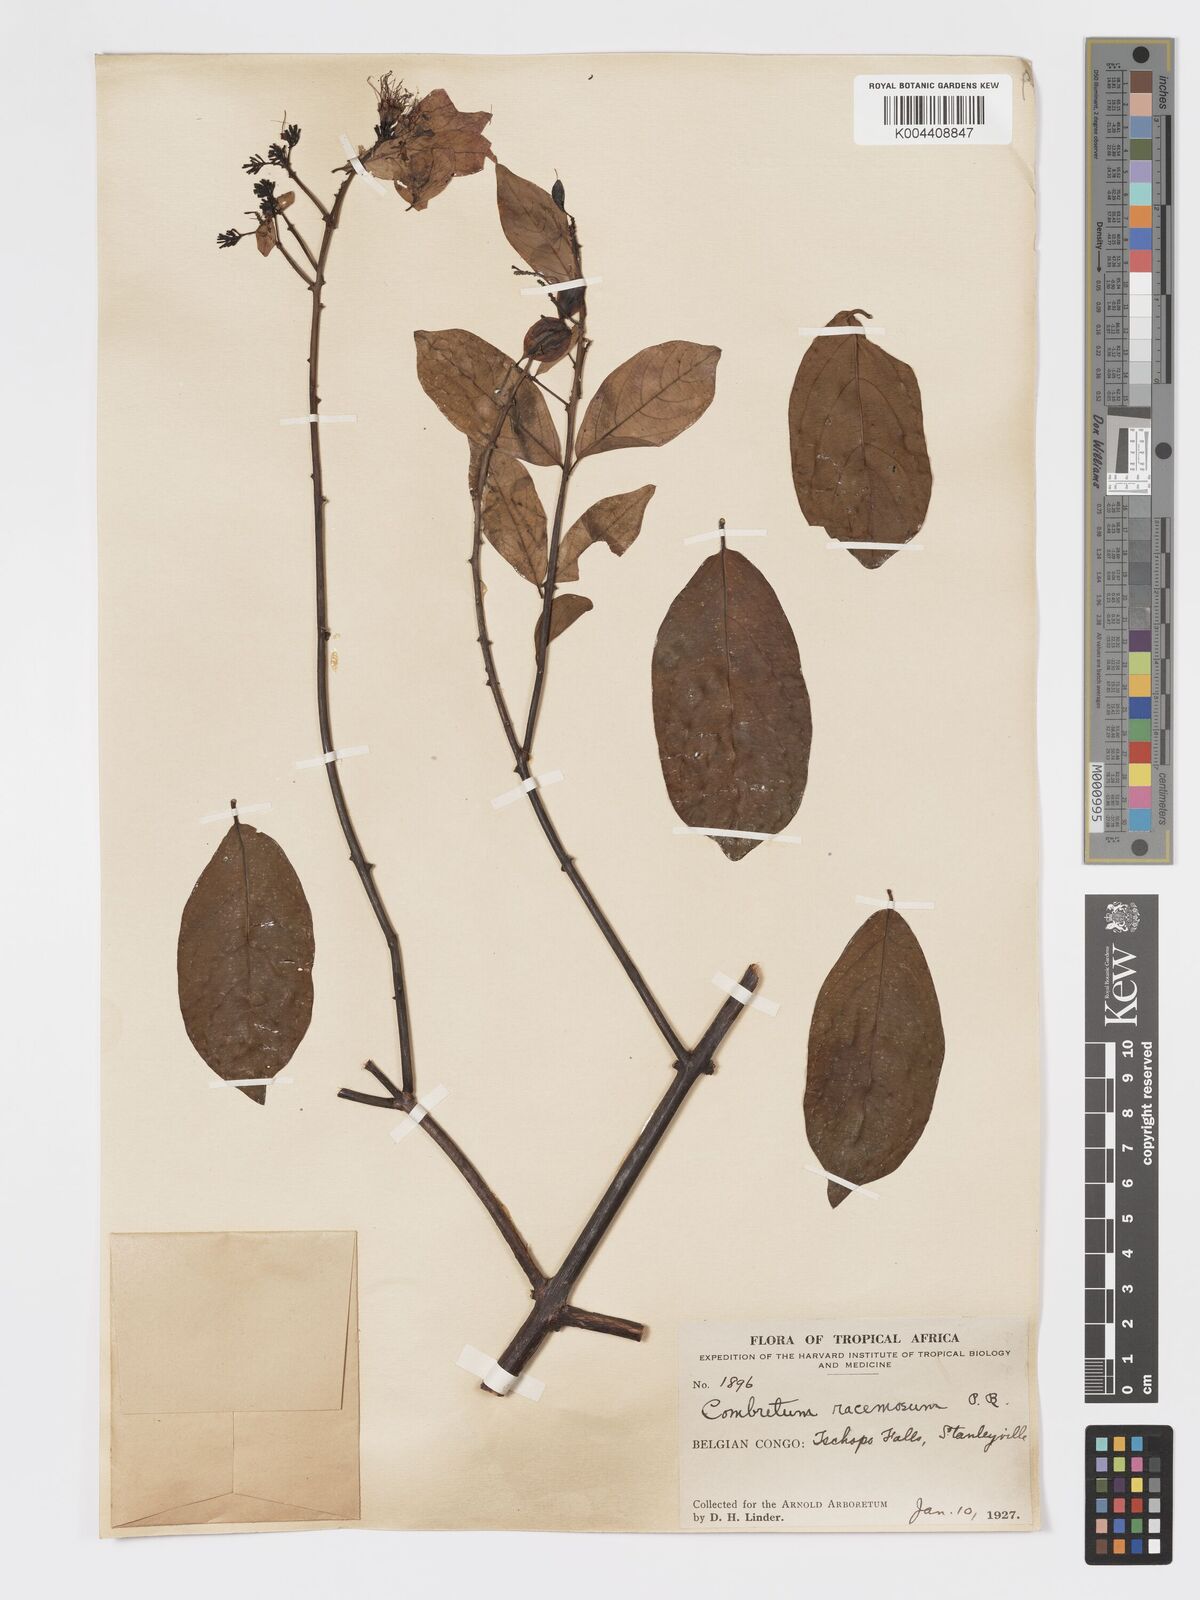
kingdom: Plantae
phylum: Tracheophyta
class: Magnoliopsida
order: Myrtales
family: Combretaceae
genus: Combretum
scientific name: Combretum racemosum
